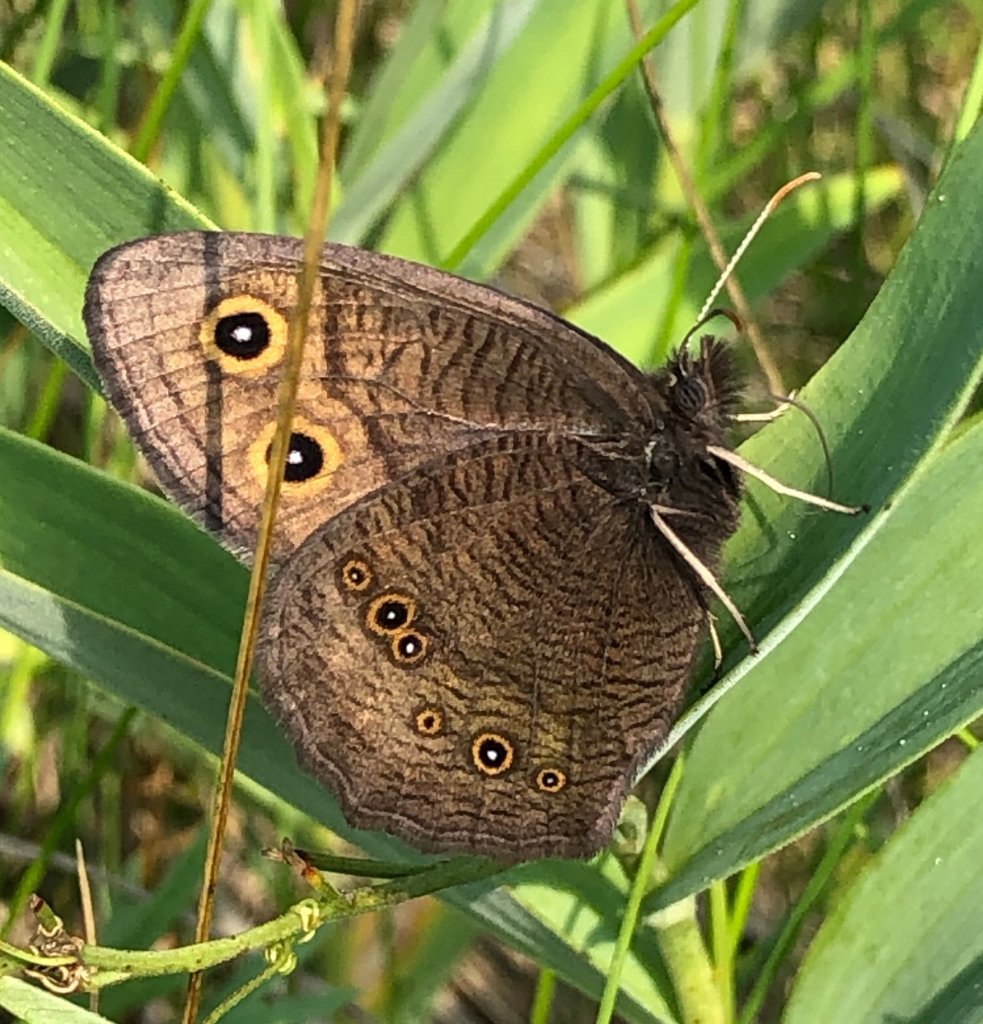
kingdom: Animalia
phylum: Arthropoda
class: Insecta
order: Lepidoptera
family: Nymphalidae
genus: Cercyonis
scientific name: Cercyonis pegala
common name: Common Wood-Nymph
